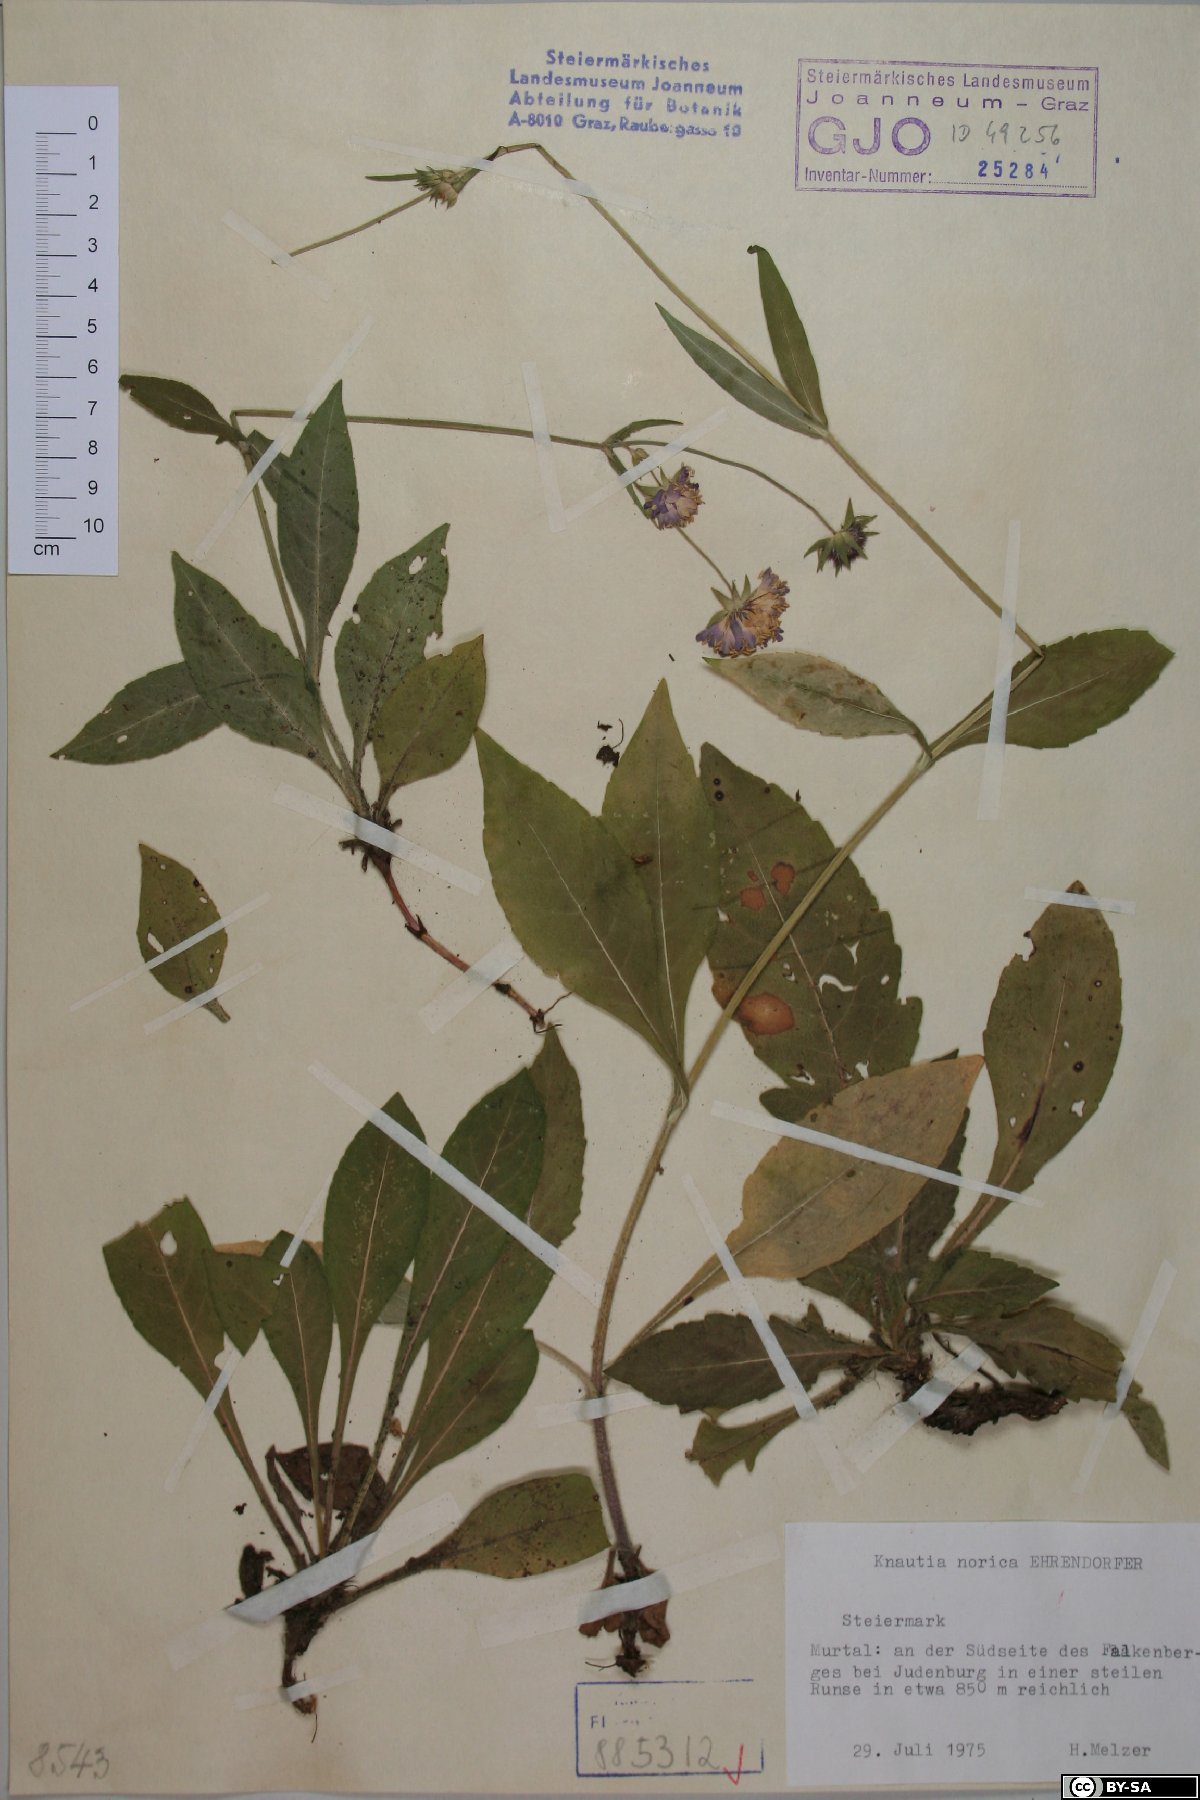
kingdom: Plantae
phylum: Tracheophyta
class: Magnoliopsida
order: Dipsacales
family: Caprifoliaceae
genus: Knautia
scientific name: Knautia norica
